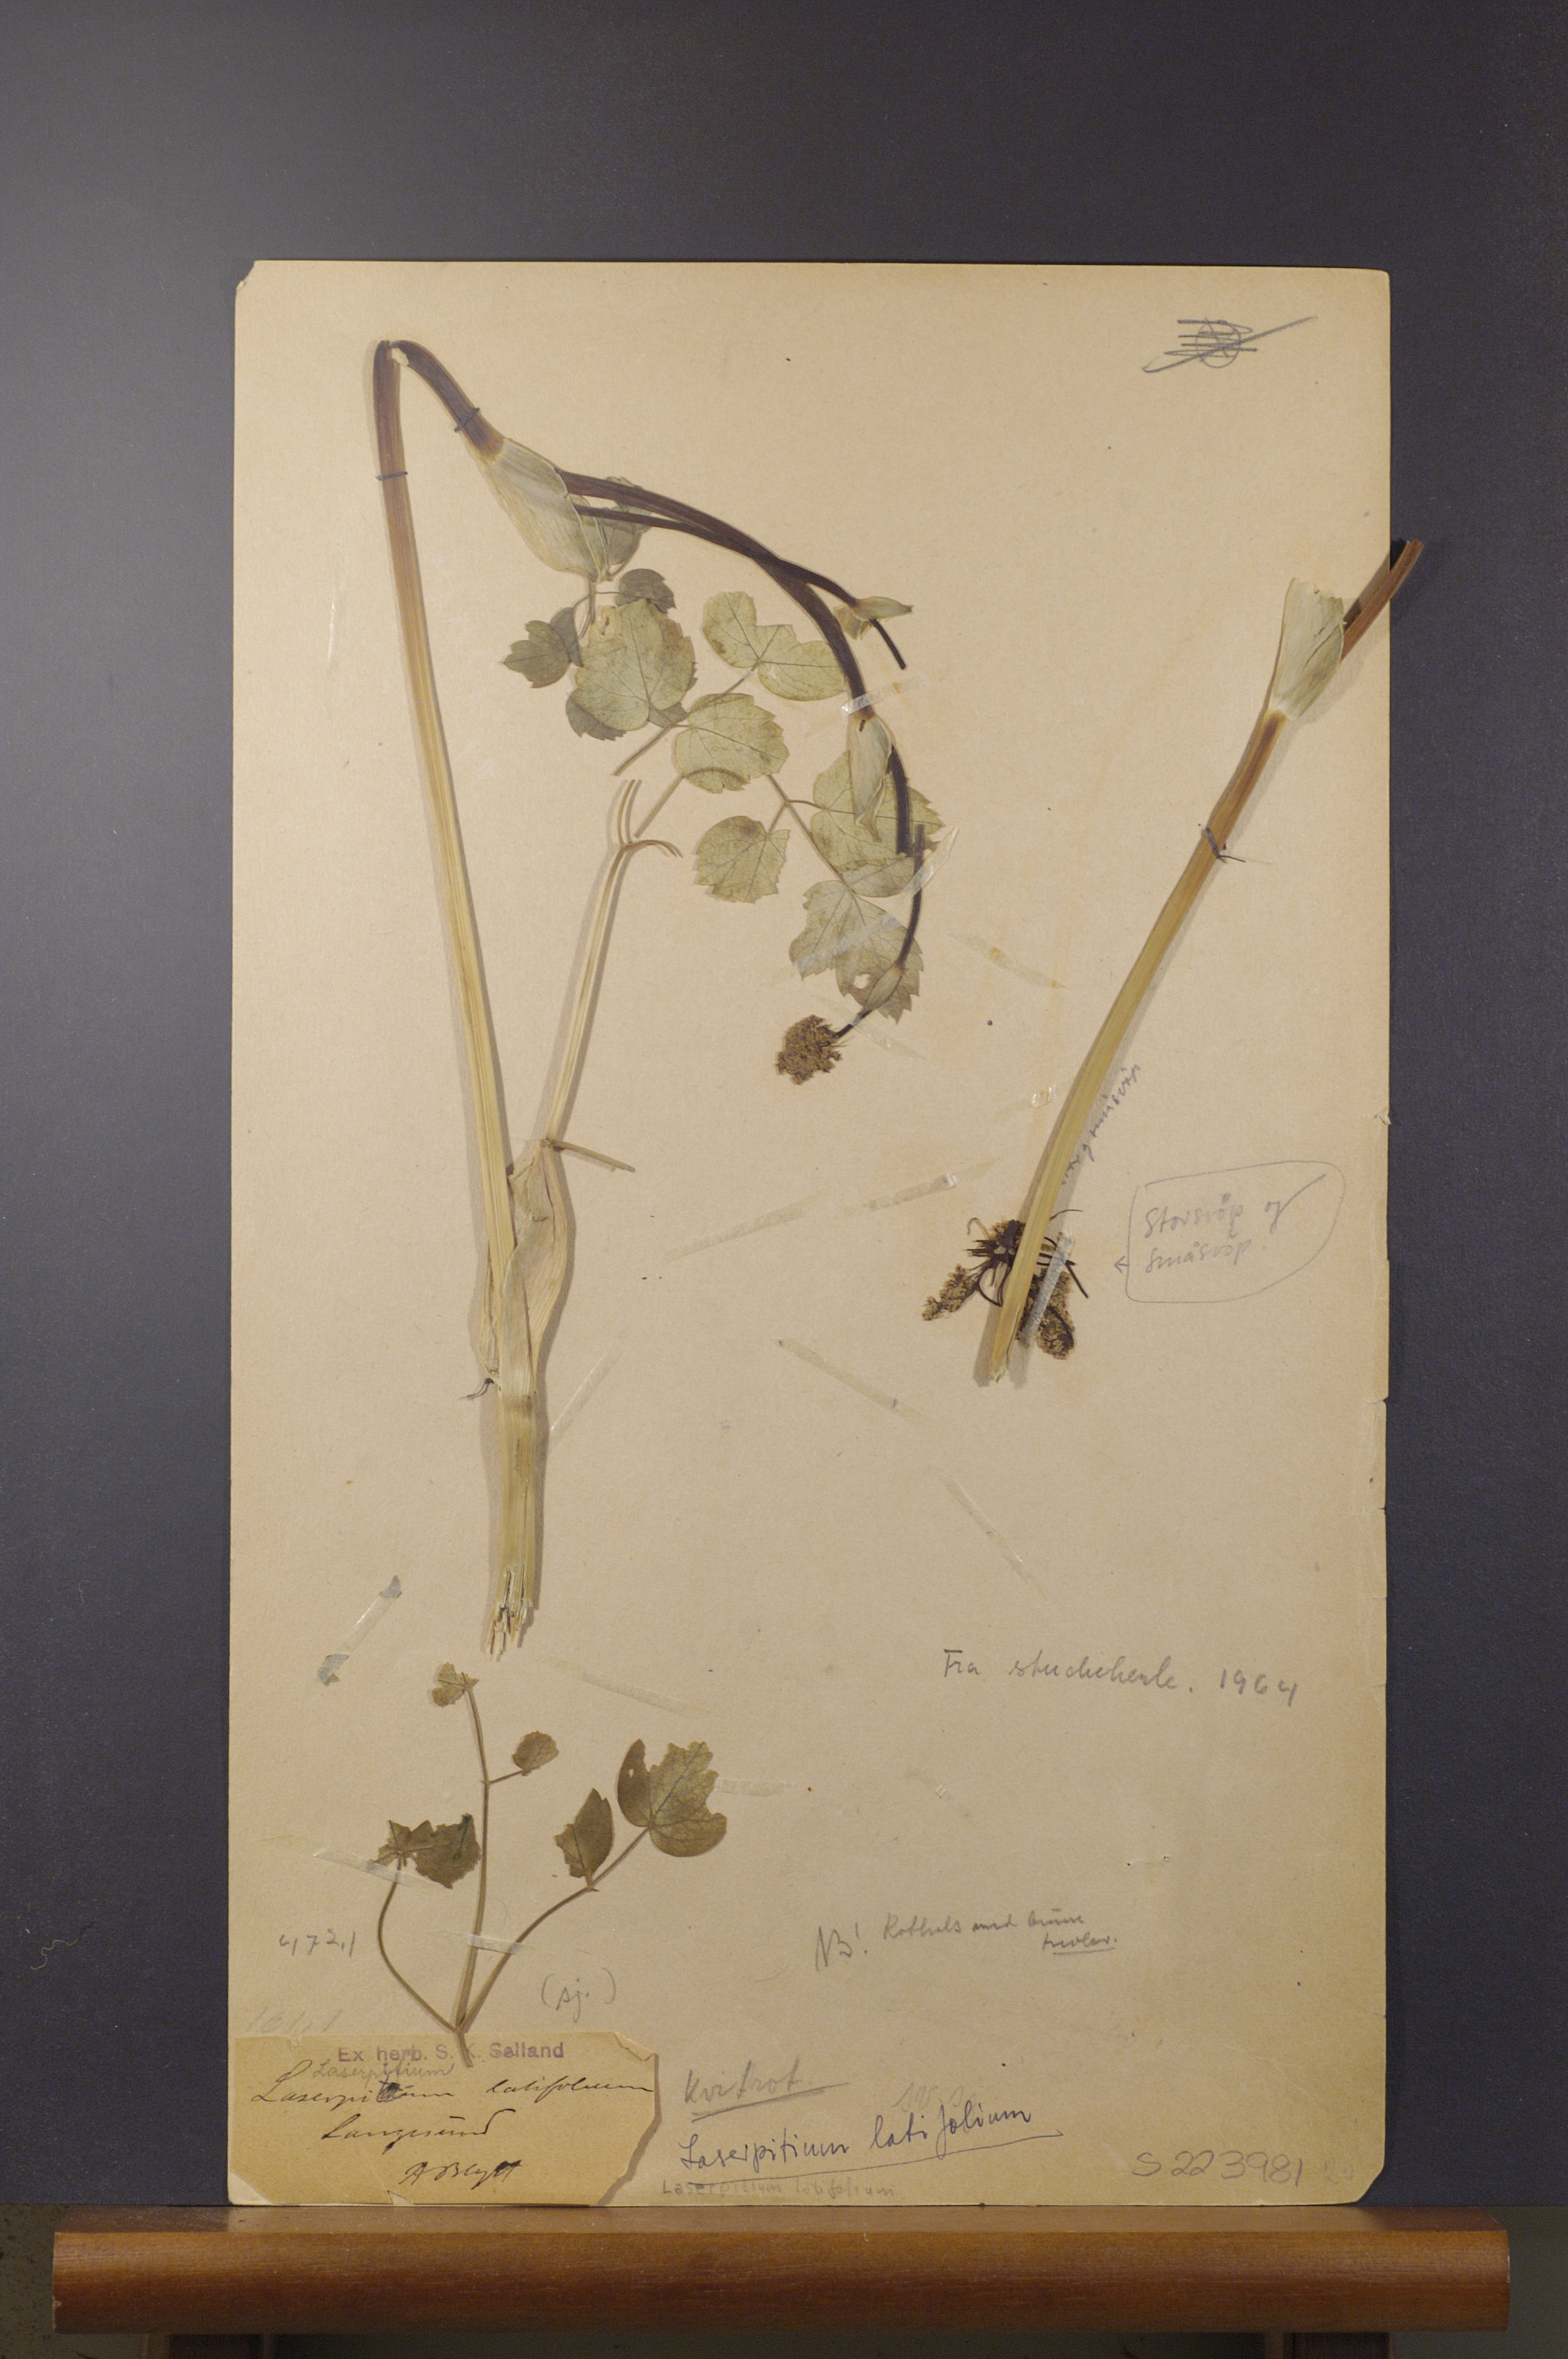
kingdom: Plantae
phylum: Tracheophyta
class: Magnoliopsida
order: Apiales
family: Apiaceae
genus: Laserpitium
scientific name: Laserpitium latifolium
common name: Broadleaf sermountain
